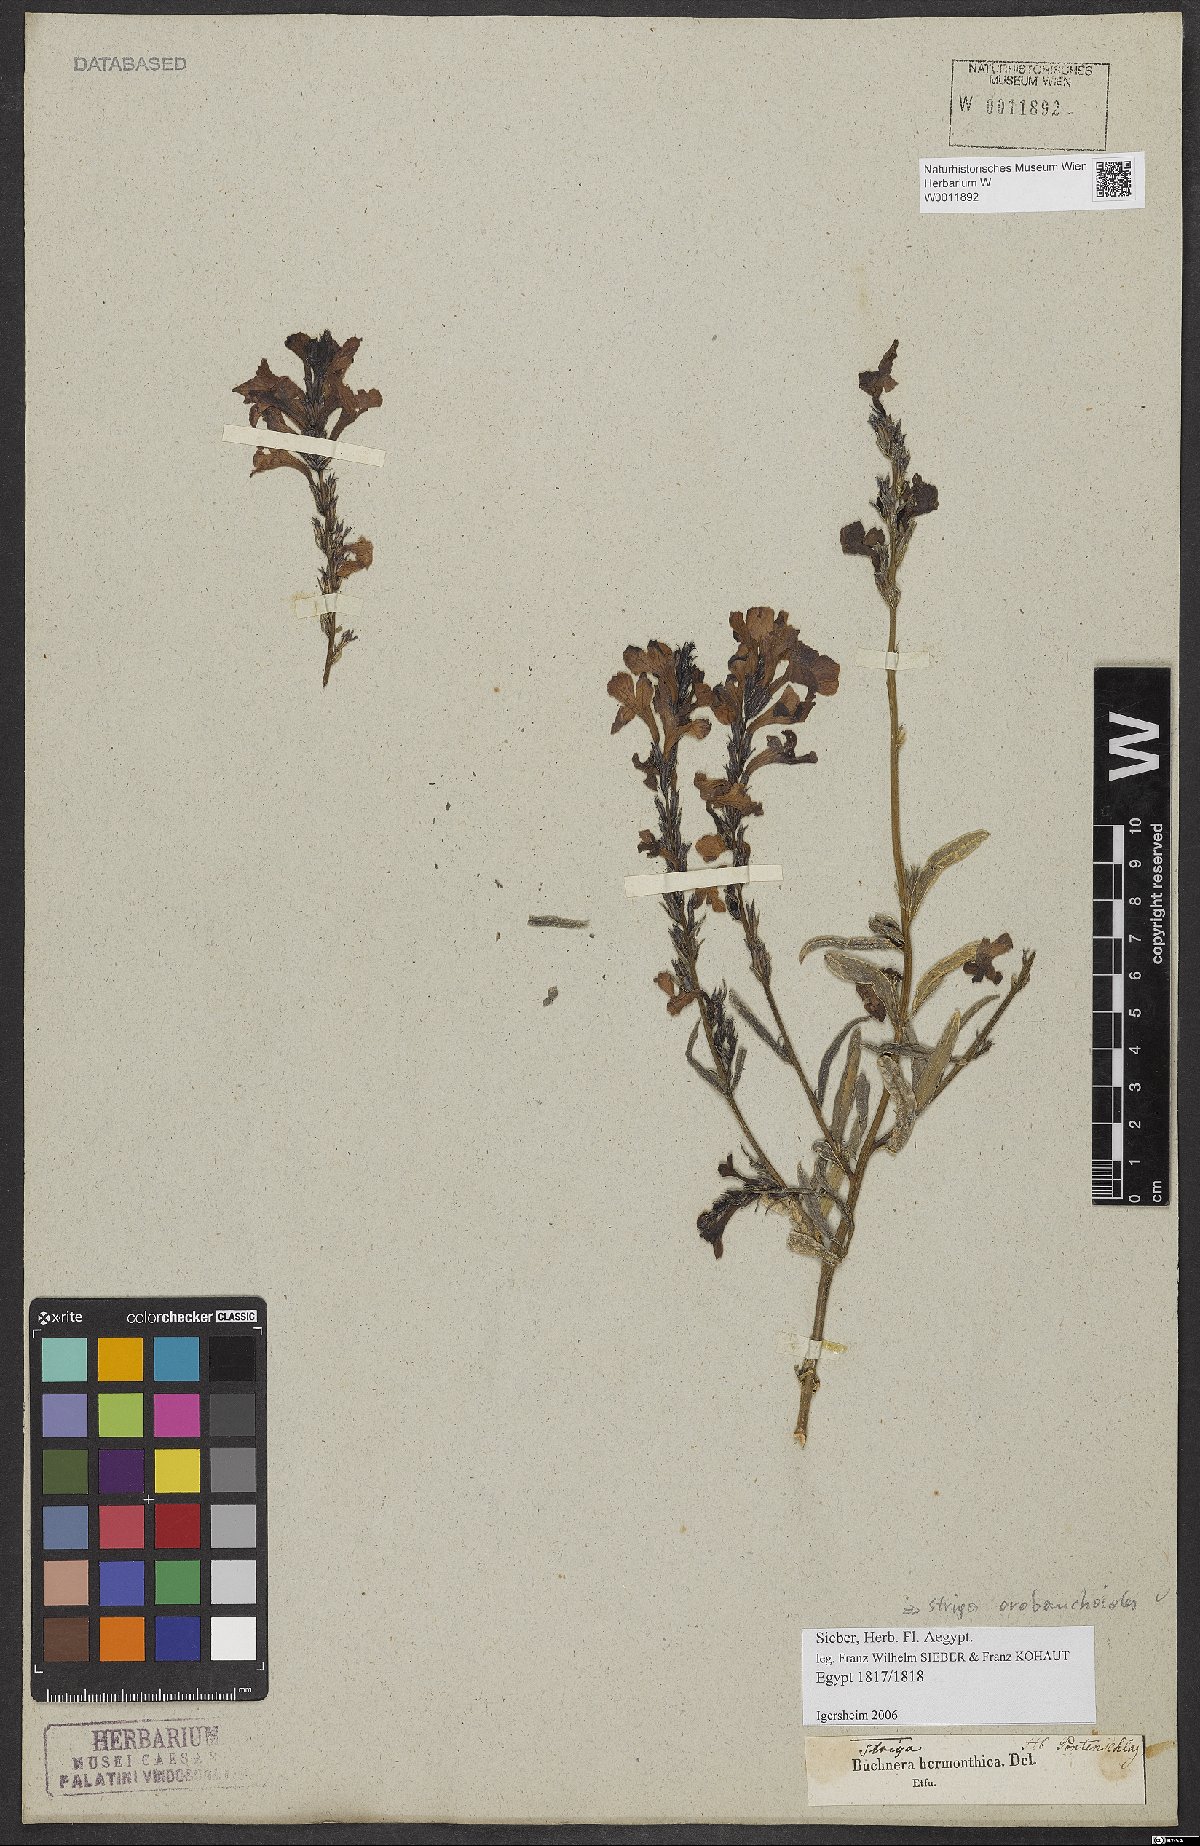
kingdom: Plantae
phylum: Tracheophyta
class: Magnoliopsida
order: Lamiales
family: Orobanchaceae
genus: Striga
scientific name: Striga barthlottii
